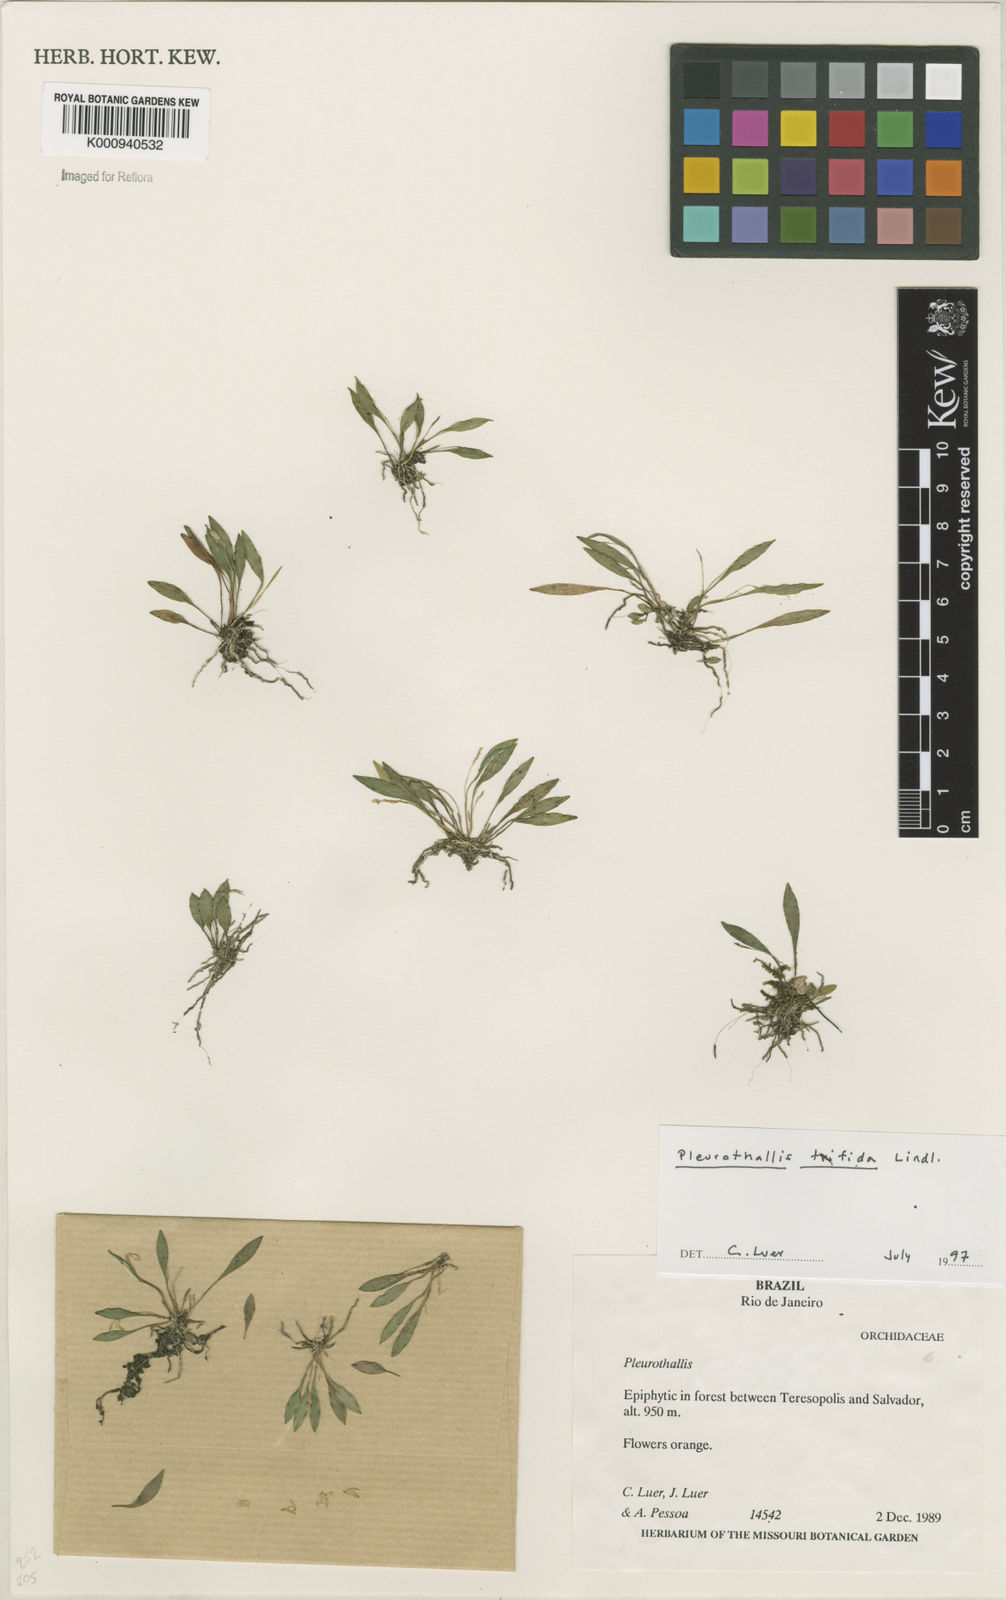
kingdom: Plantae
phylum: Tracheophyta
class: Liliopsida
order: Asparagales
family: Orchidaceae
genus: Pabstiella
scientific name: Pabstiella trifida
